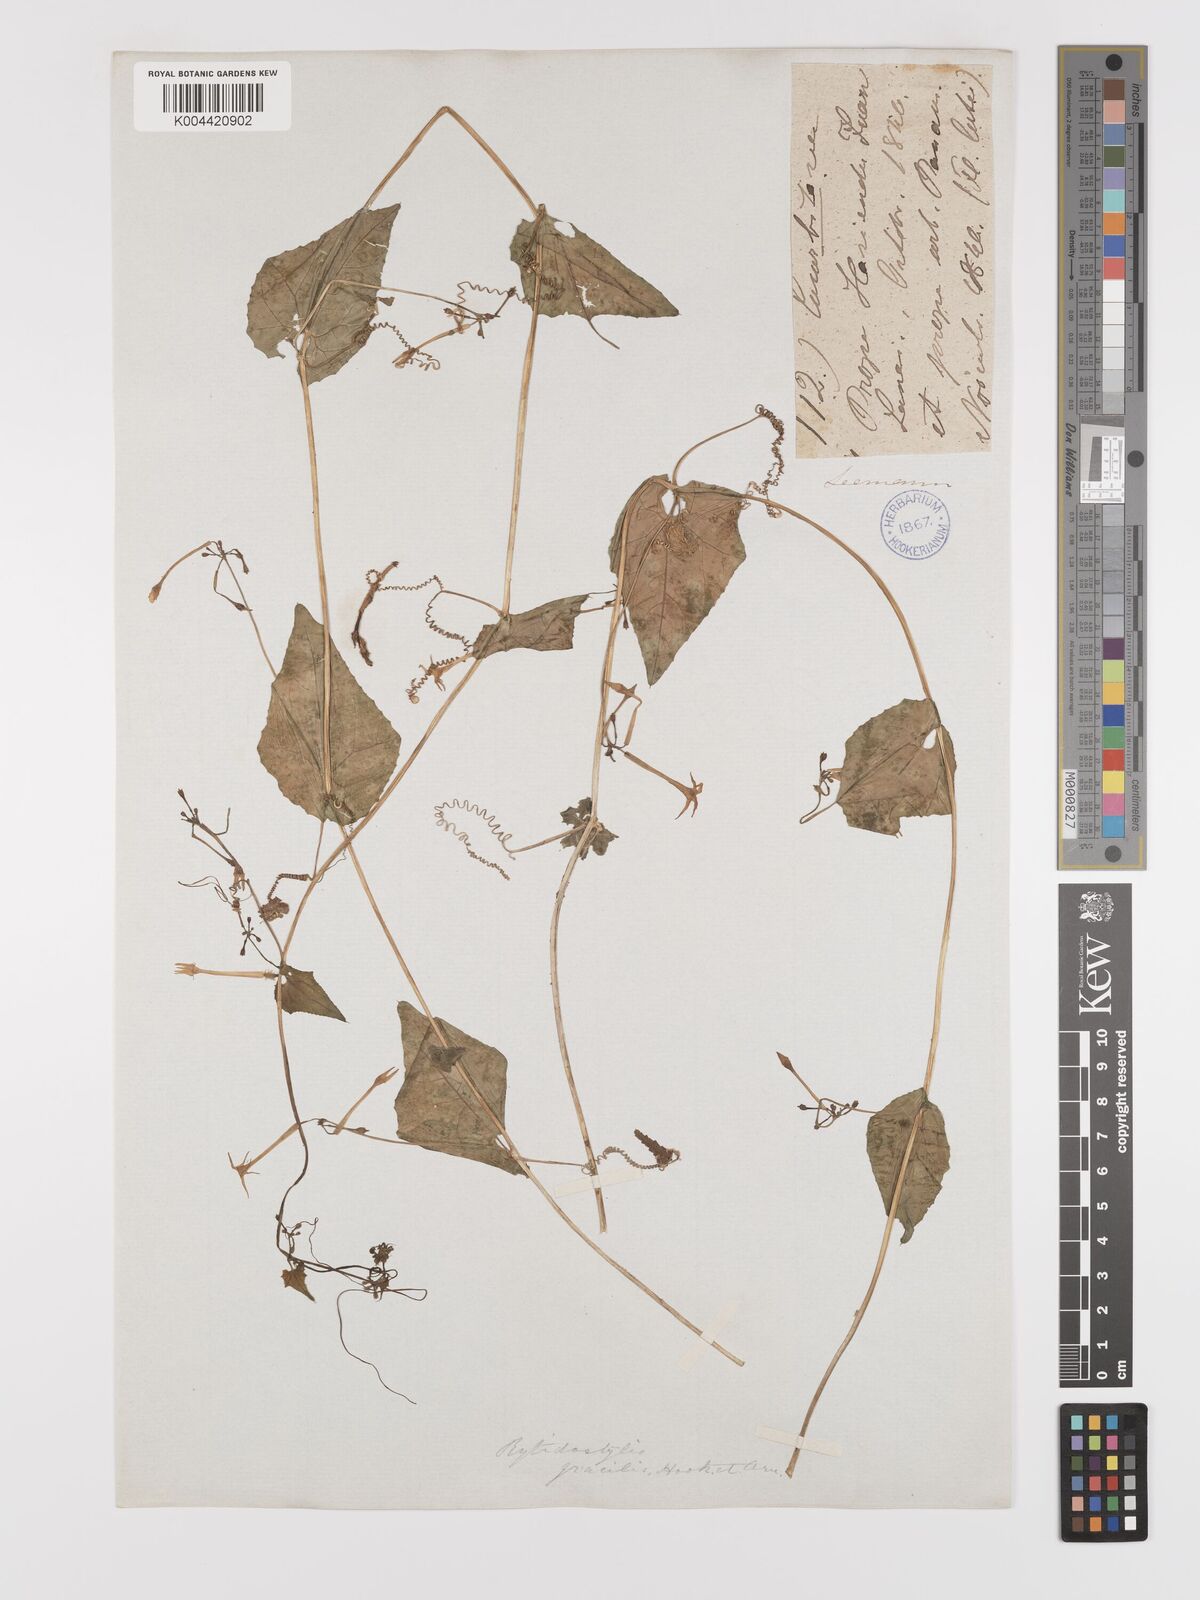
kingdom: Plantae
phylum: Tracheophyta
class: Magnoliopsida
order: Cucurbitales
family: Cucurbitaceae
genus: Cyclanthera
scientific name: Cyclanthera filiformis
